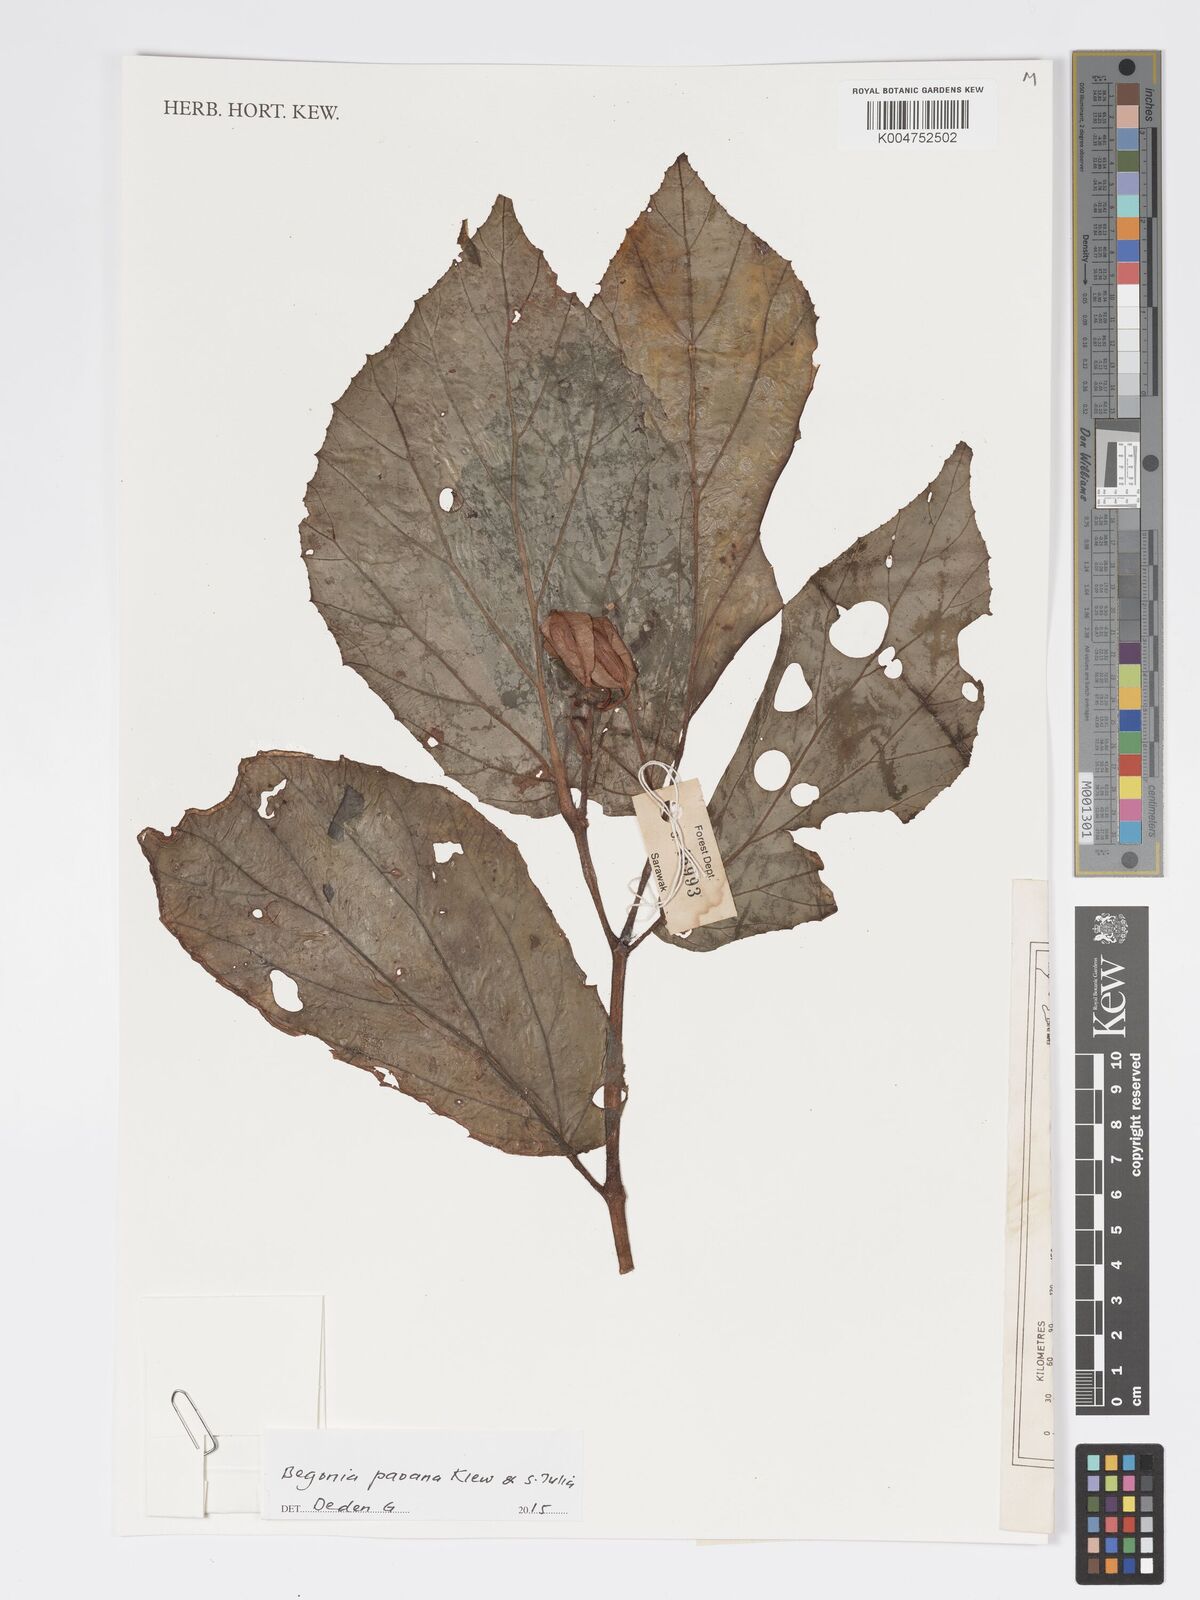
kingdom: Plantae
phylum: Tracheophyta
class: Magnoliopsida
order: Cucurbitales
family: Begoniaceae
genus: Begonia
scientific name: Begonia paoana
